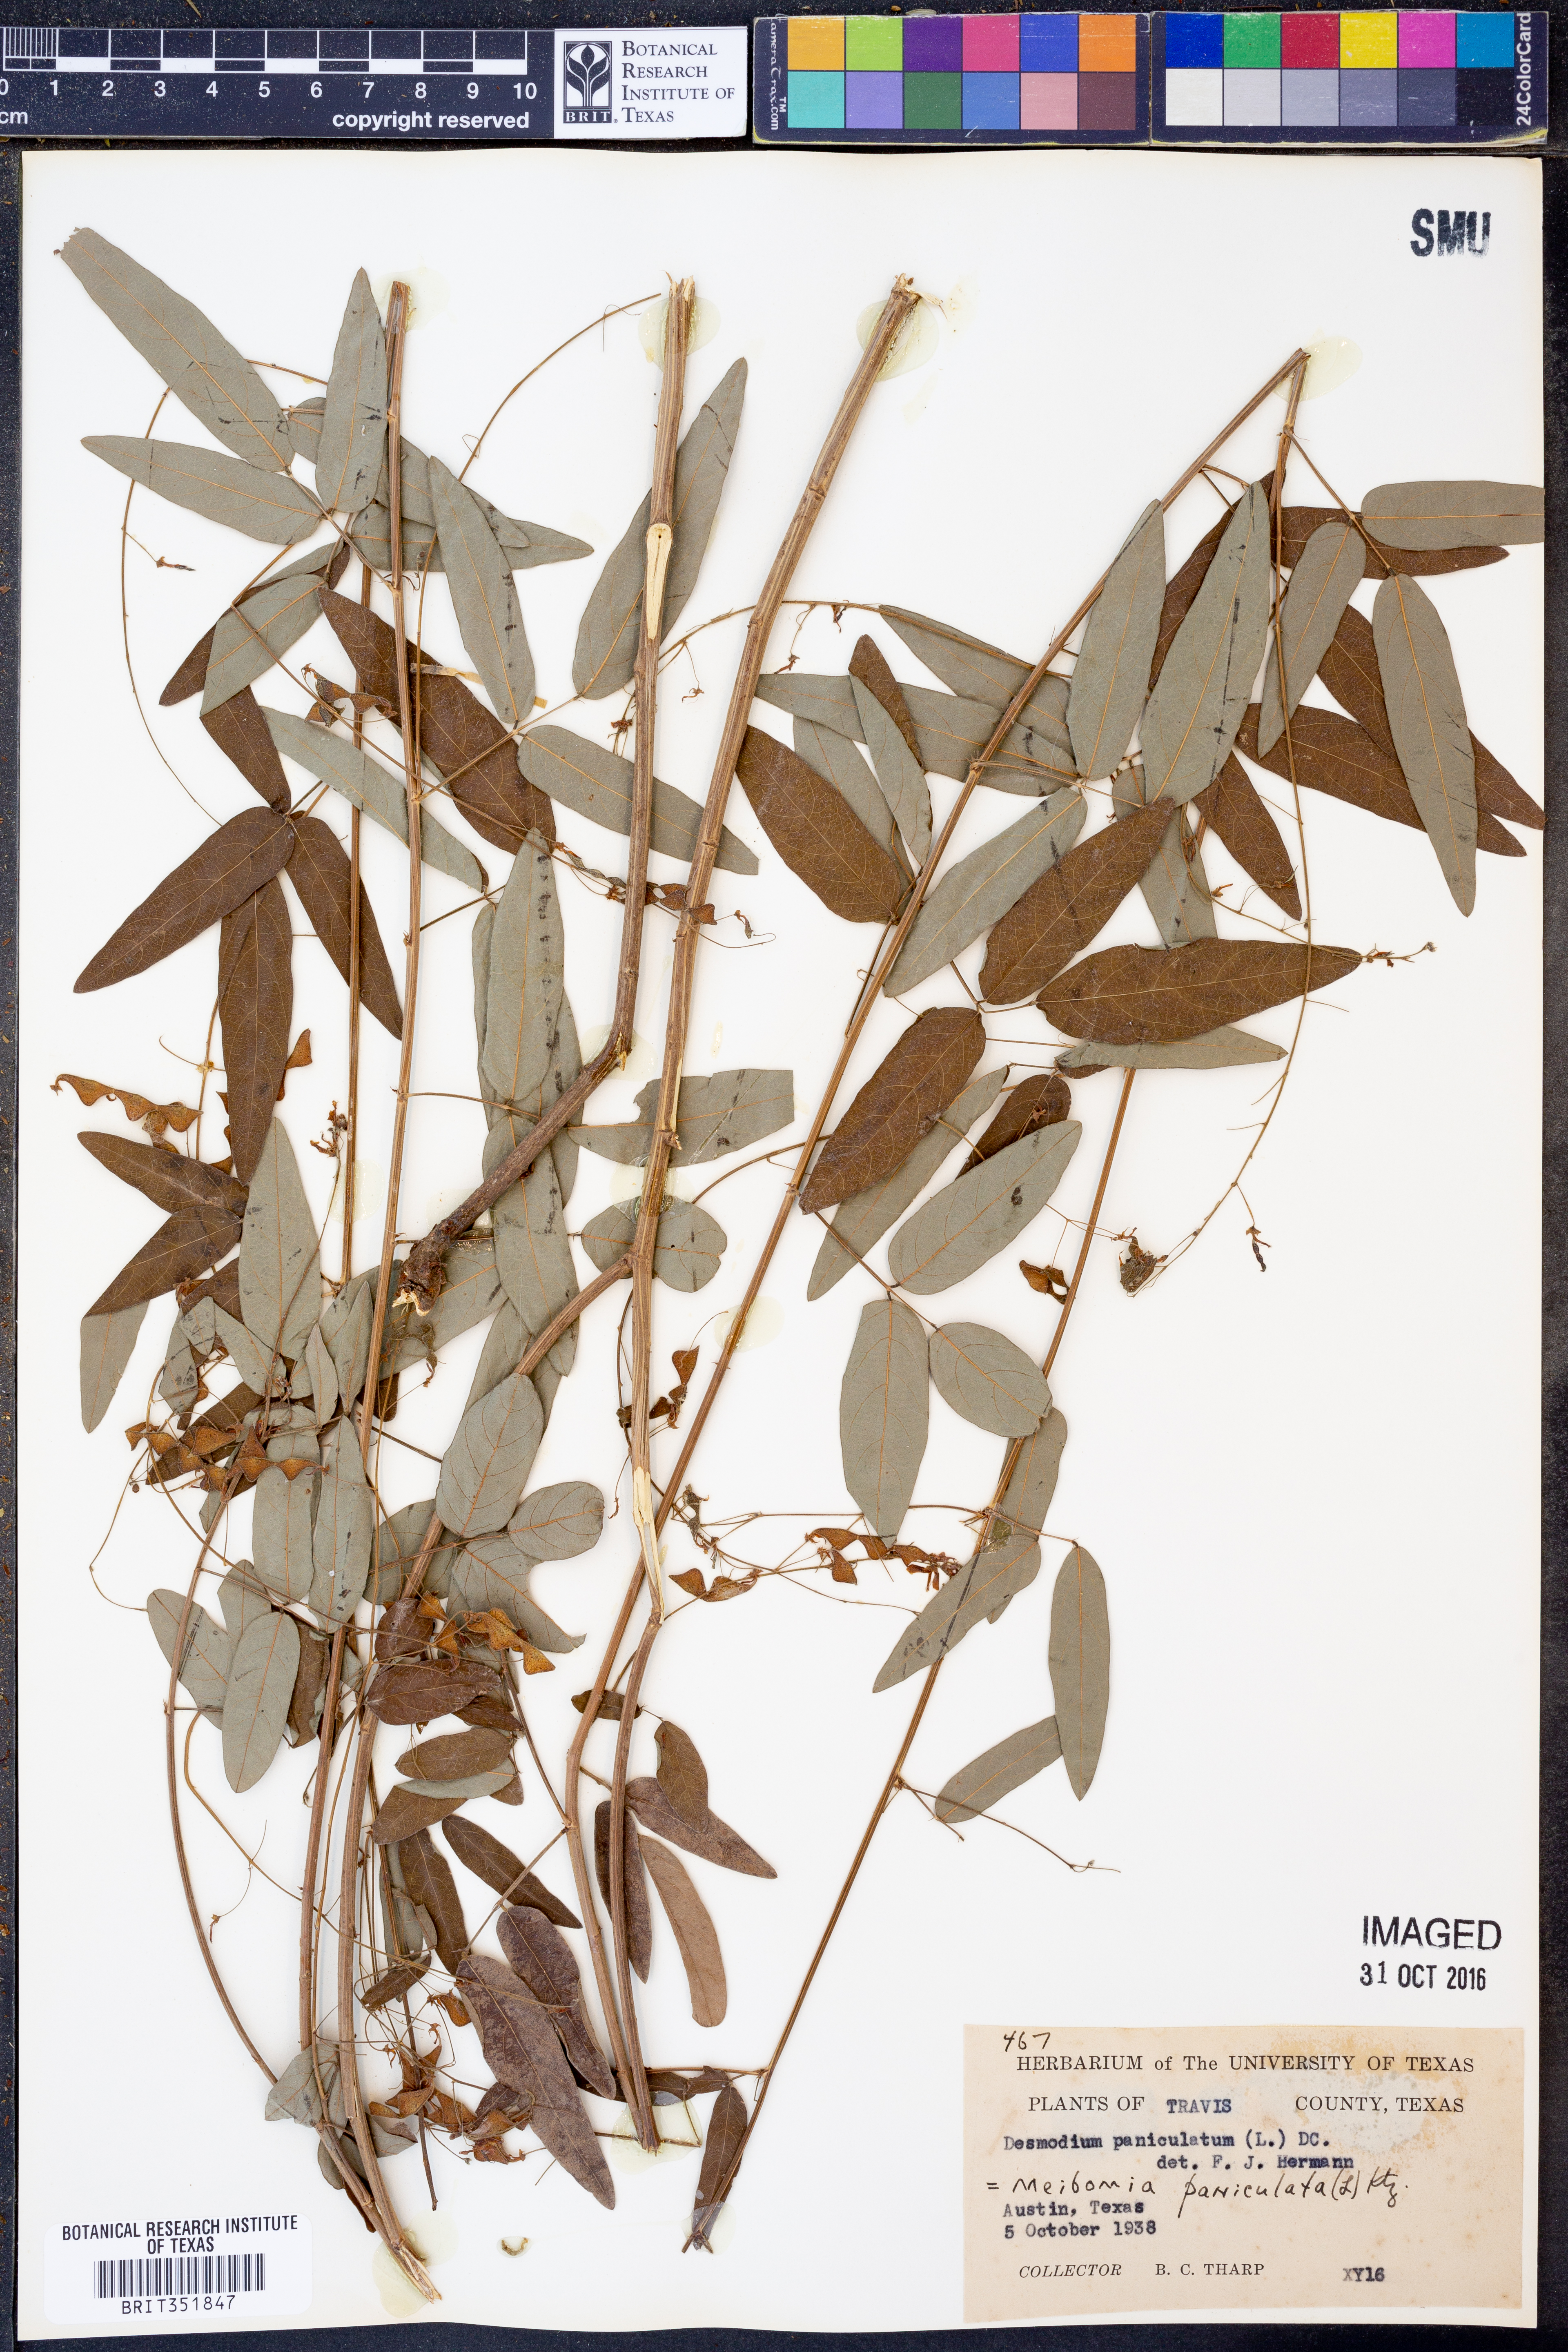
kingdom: Plantae
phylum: Tracheophyta
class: Magnoliopsida
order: Fabales
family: Fabaceae
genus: Desmodium
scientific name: Desmodium paniculatum
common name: Panicled tick-clover
